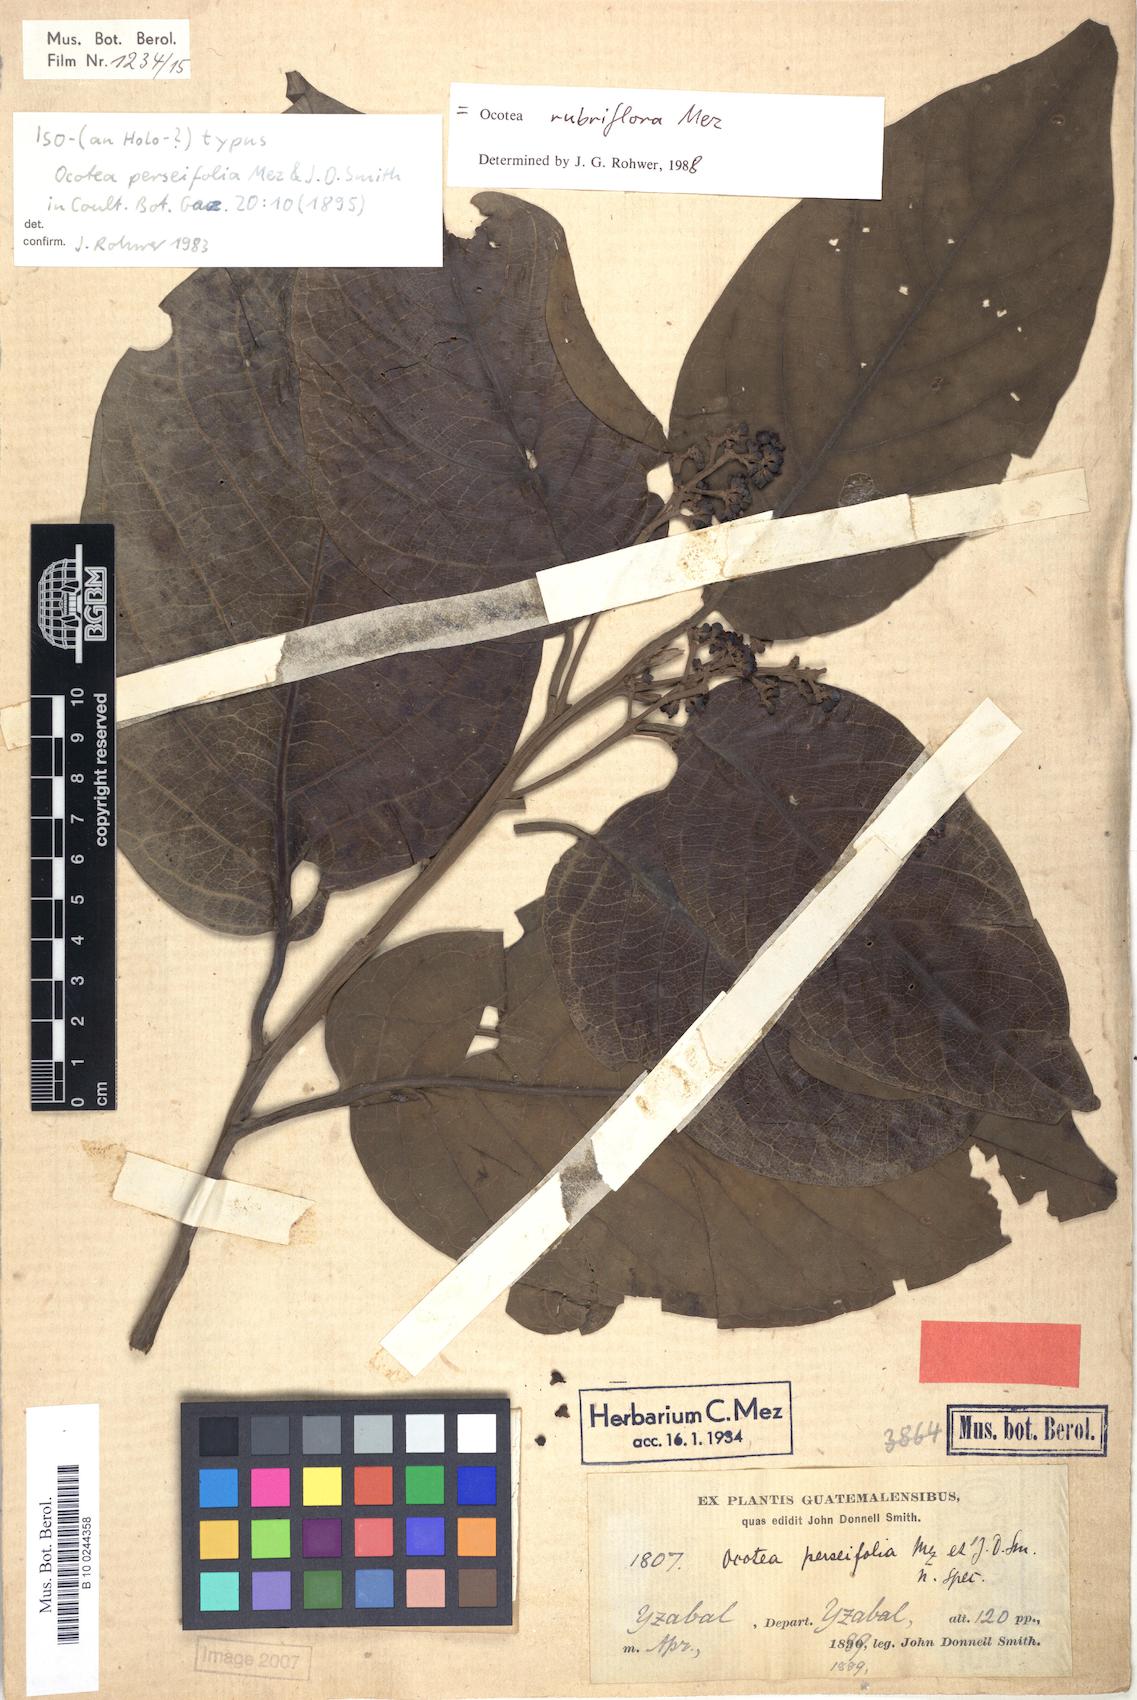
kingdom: Plantae
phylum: Tracheophyta
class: Magnoliopsida
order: Laurales
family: Lauraceae
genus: Nectandra
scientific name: Nectandra rubriflora
